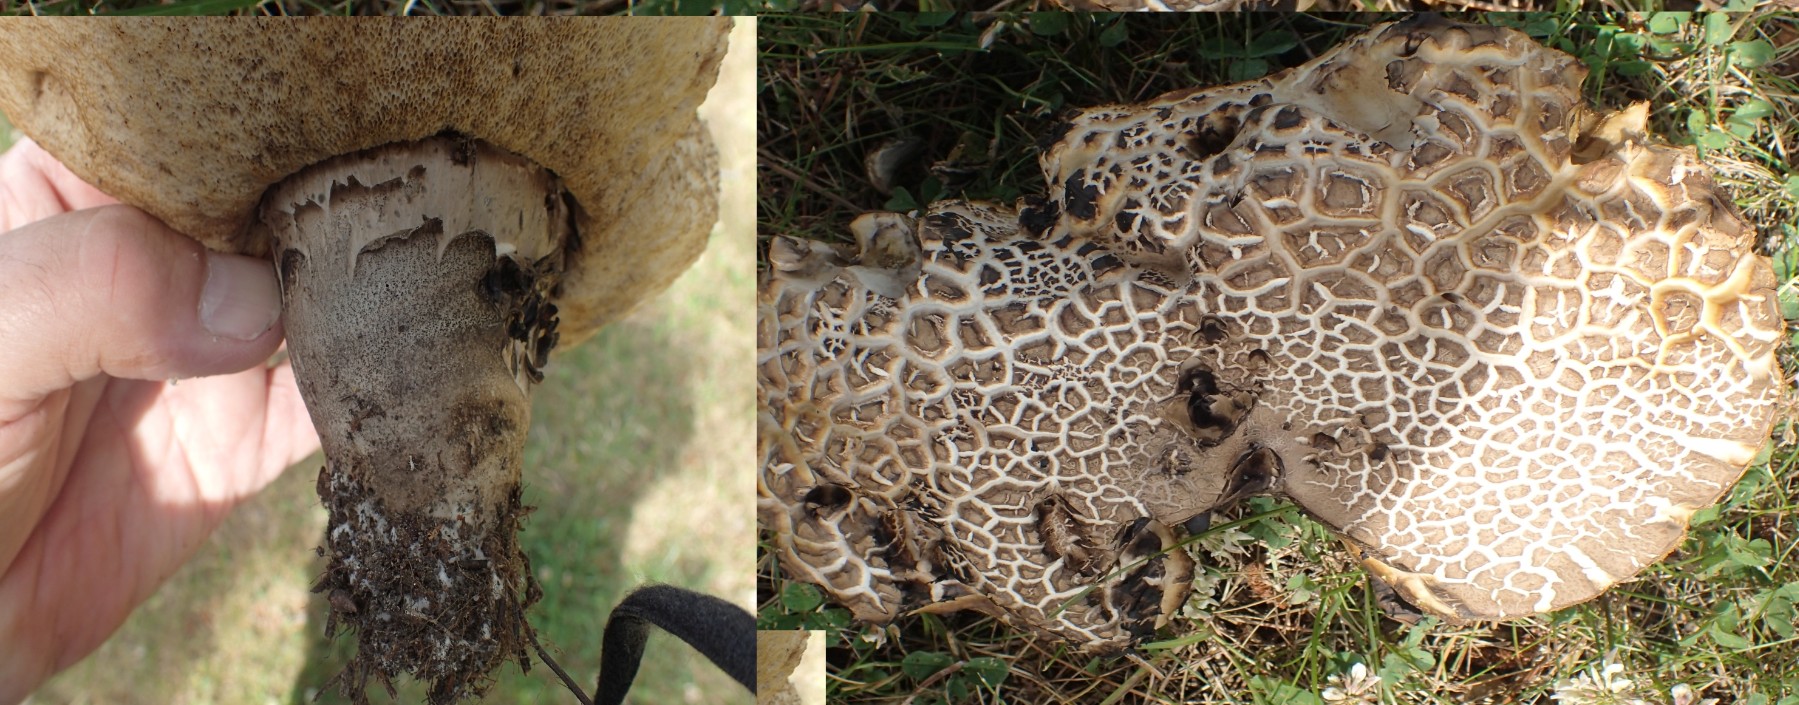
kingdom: Fungi
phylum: Basidiomycota
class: Agaricomycetes
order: Boletales
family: Boletaceae
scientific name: Boletaceae
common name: rørhatfamilien
